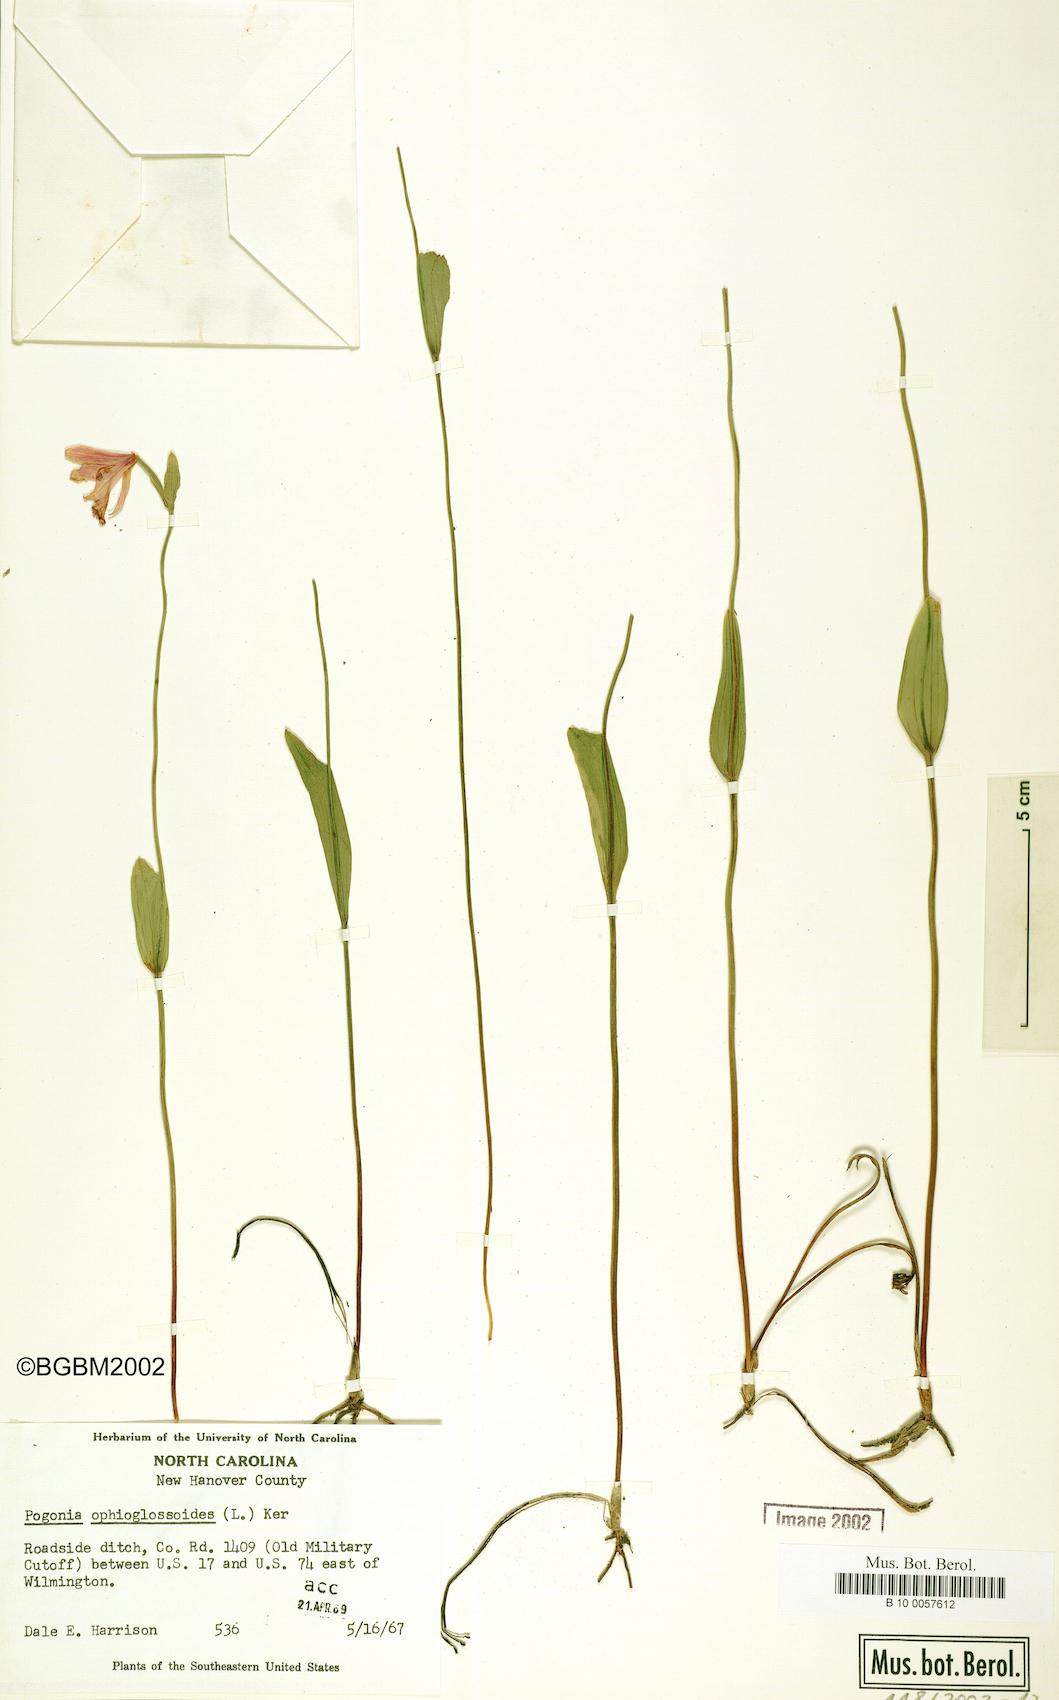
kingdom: Plantae
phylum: Tracheophyta
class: Liliopsida
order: Asparagales
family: Orchidaceae
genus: Pogonia
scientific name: Pogonia ophioglossoides
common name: Rose pogonia
